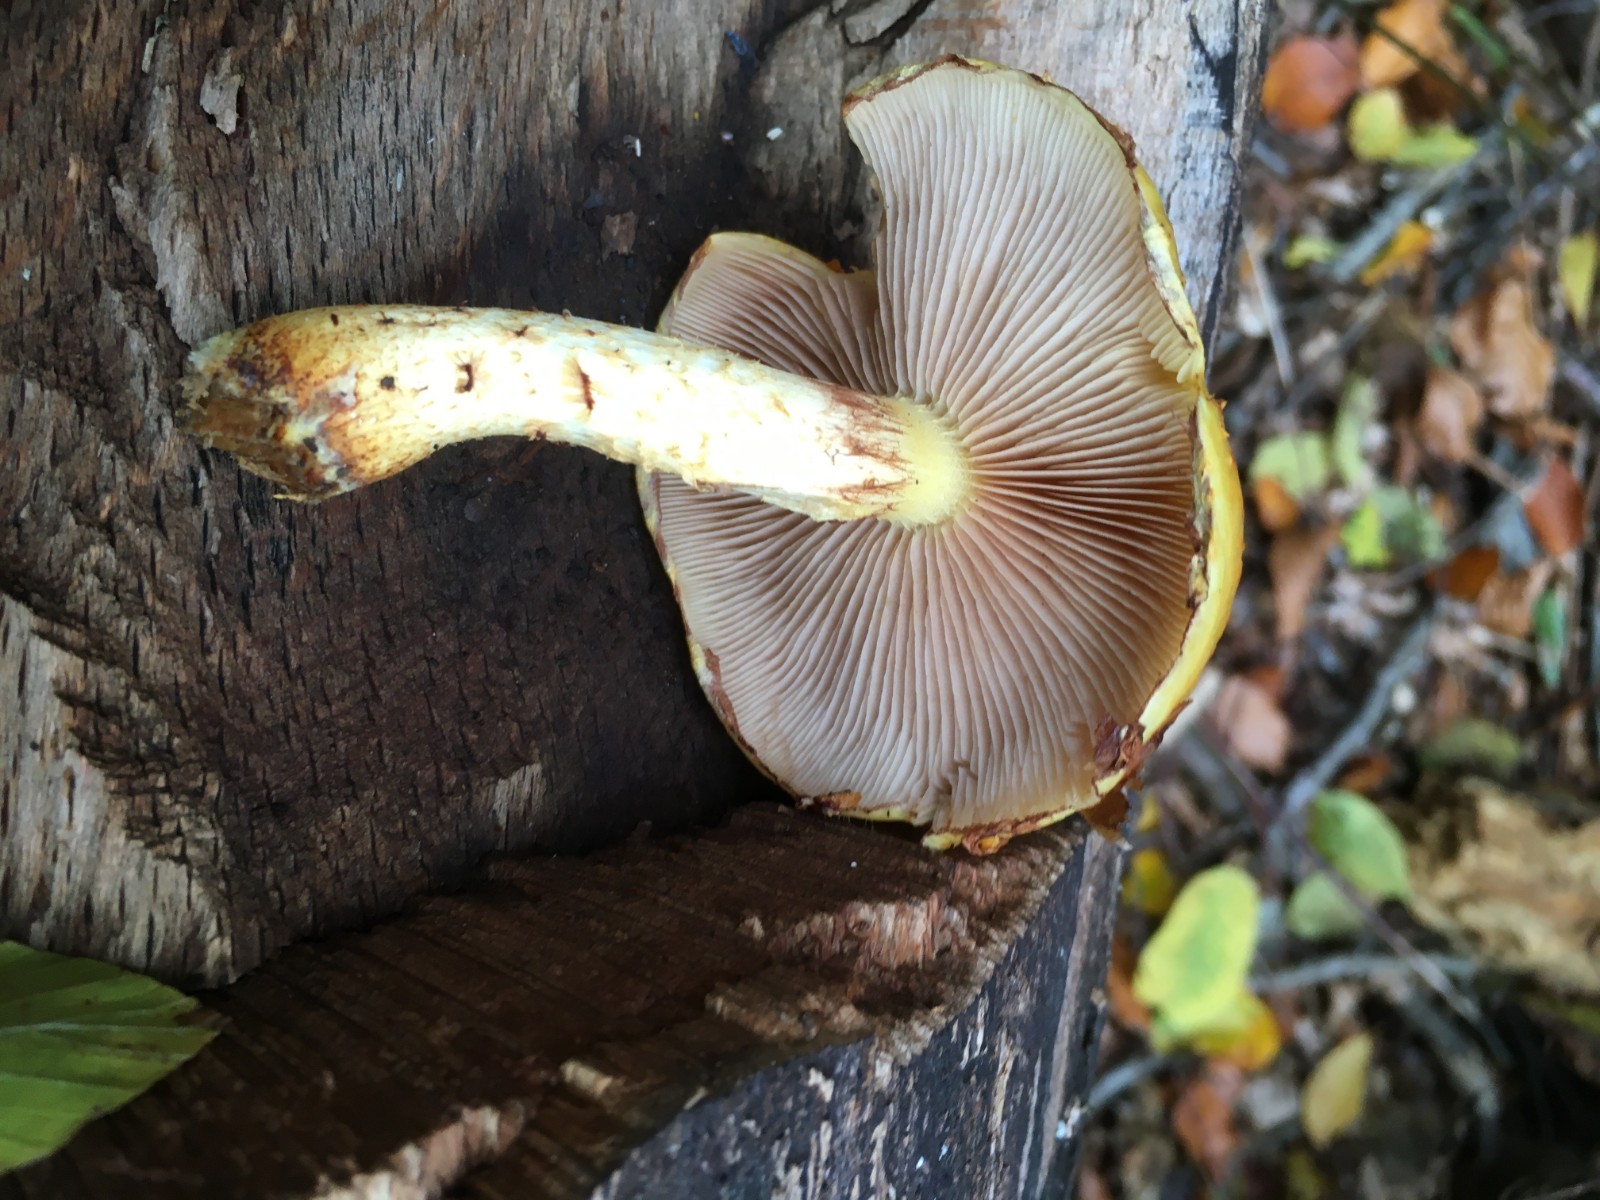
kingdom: Fungi
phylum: Basidiomycota
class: Agaricomycetes
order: Agaricales
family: Strophariaceae
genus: Pholiota
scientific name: Pholiota adiposa
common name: højtsiddende skælhat
